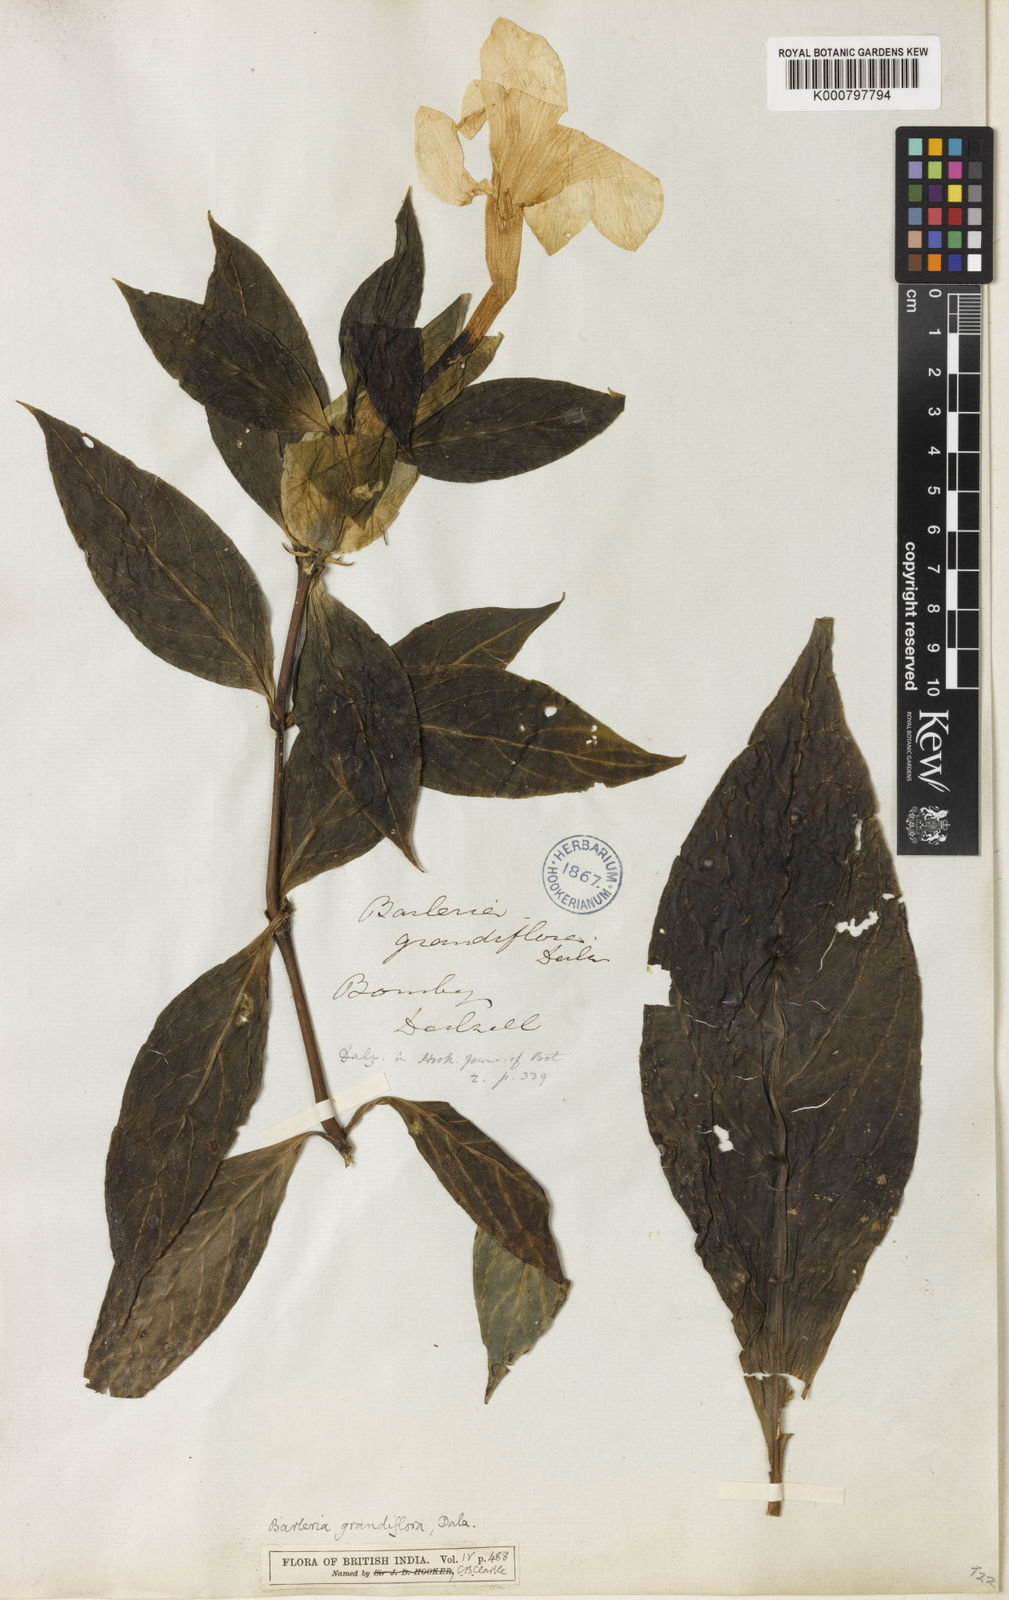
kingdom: Plantae
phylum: Tracheophyta
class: Magnoliopsida
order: Lamiales
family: Acanthaceae
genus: Barleria
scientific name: Barleria grandiflora
